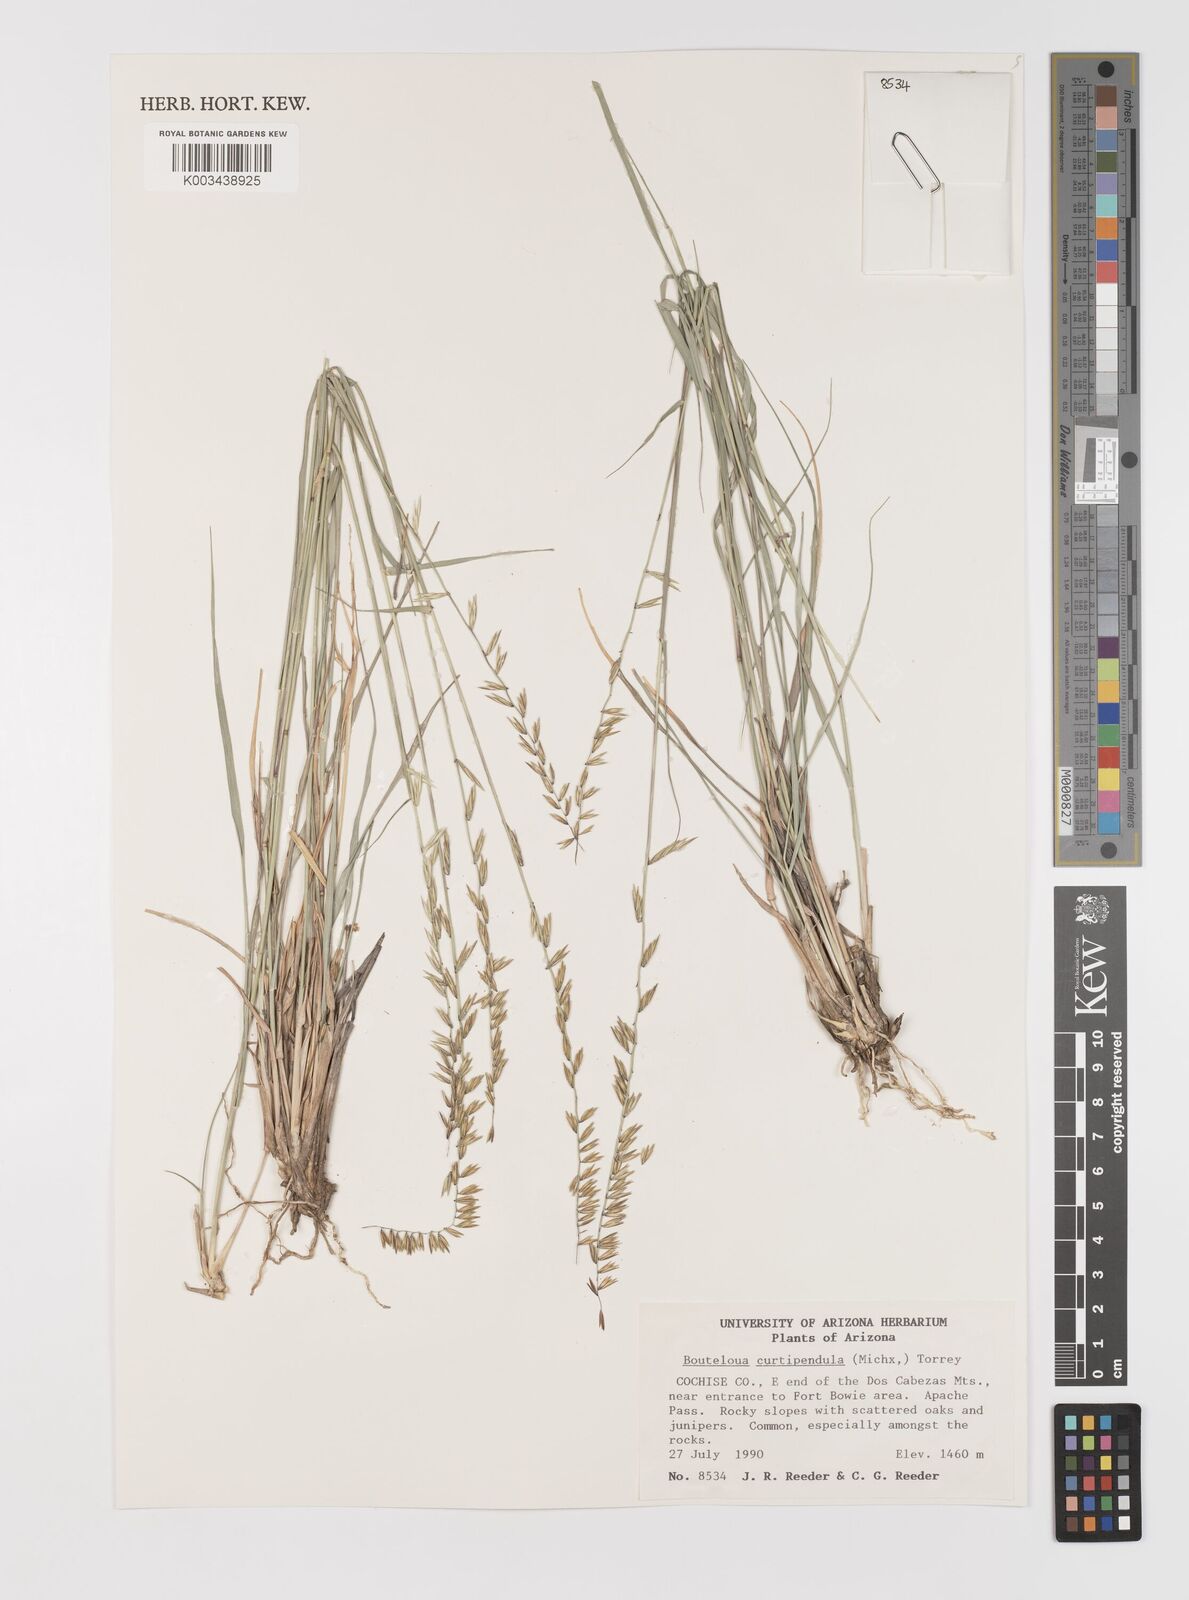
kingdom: Plantae
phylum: Tracheophyta
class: Liliopsida
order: Poales
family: Poaceae
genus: Bouteloua
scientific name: Bouteloua curtipendula
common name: Side-oats grama
